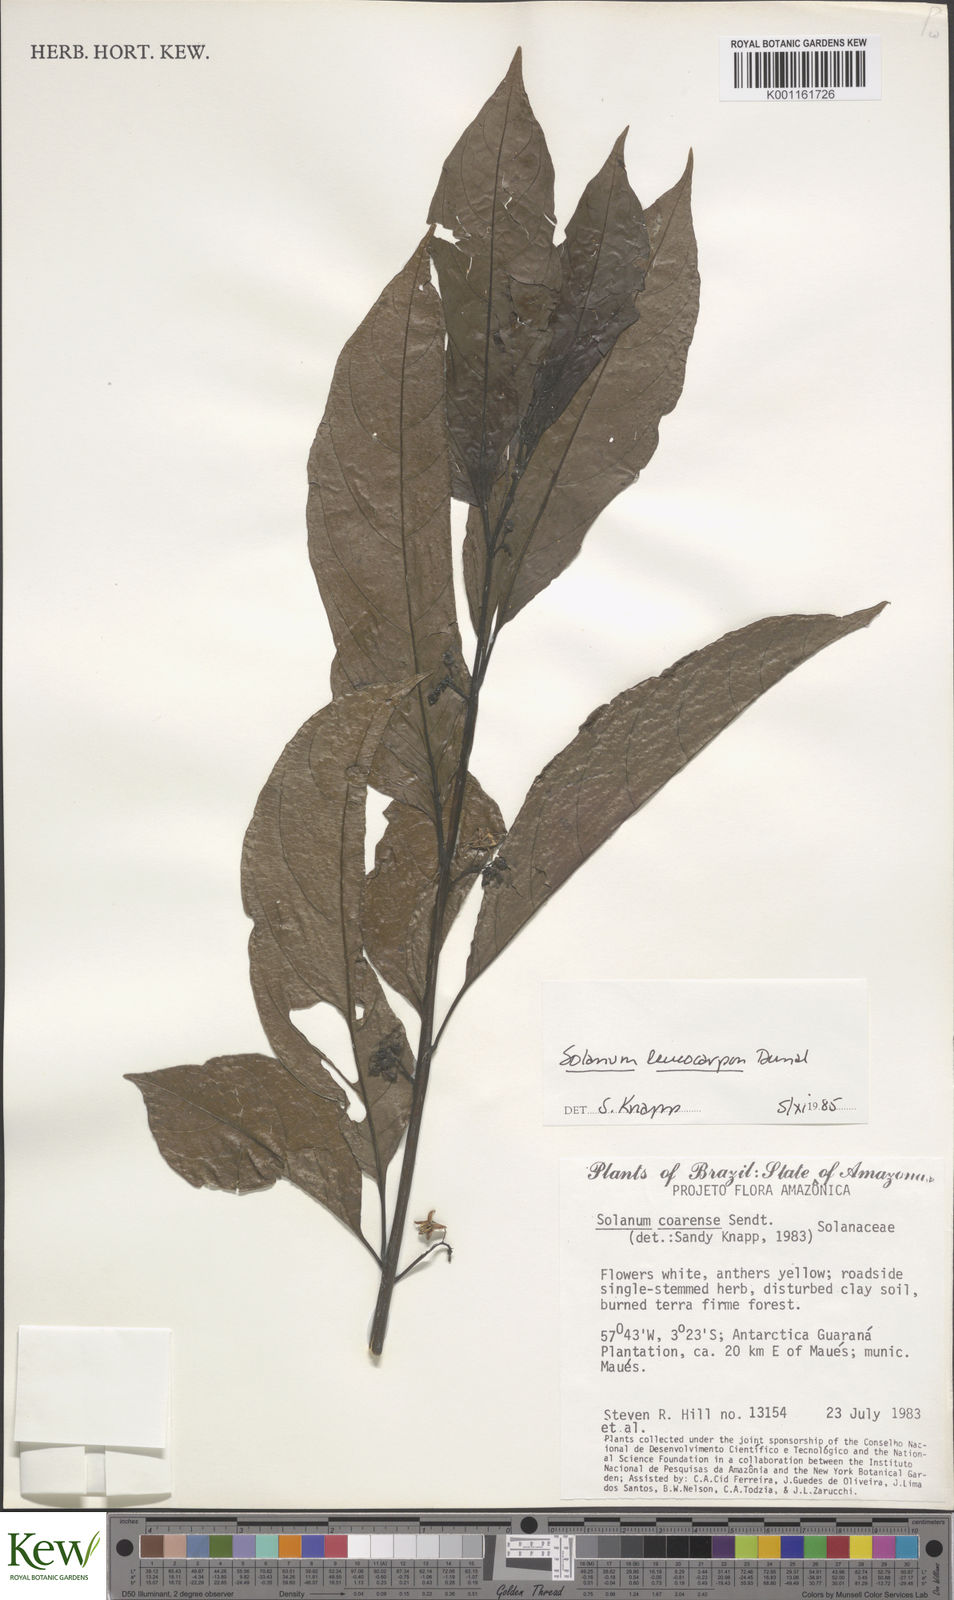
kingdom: Plantae
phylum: Tracheophyta
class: Magnoliopsida
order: Solanales
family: Solanaceae
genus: Solanum
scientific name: Solanum leucocarpon
